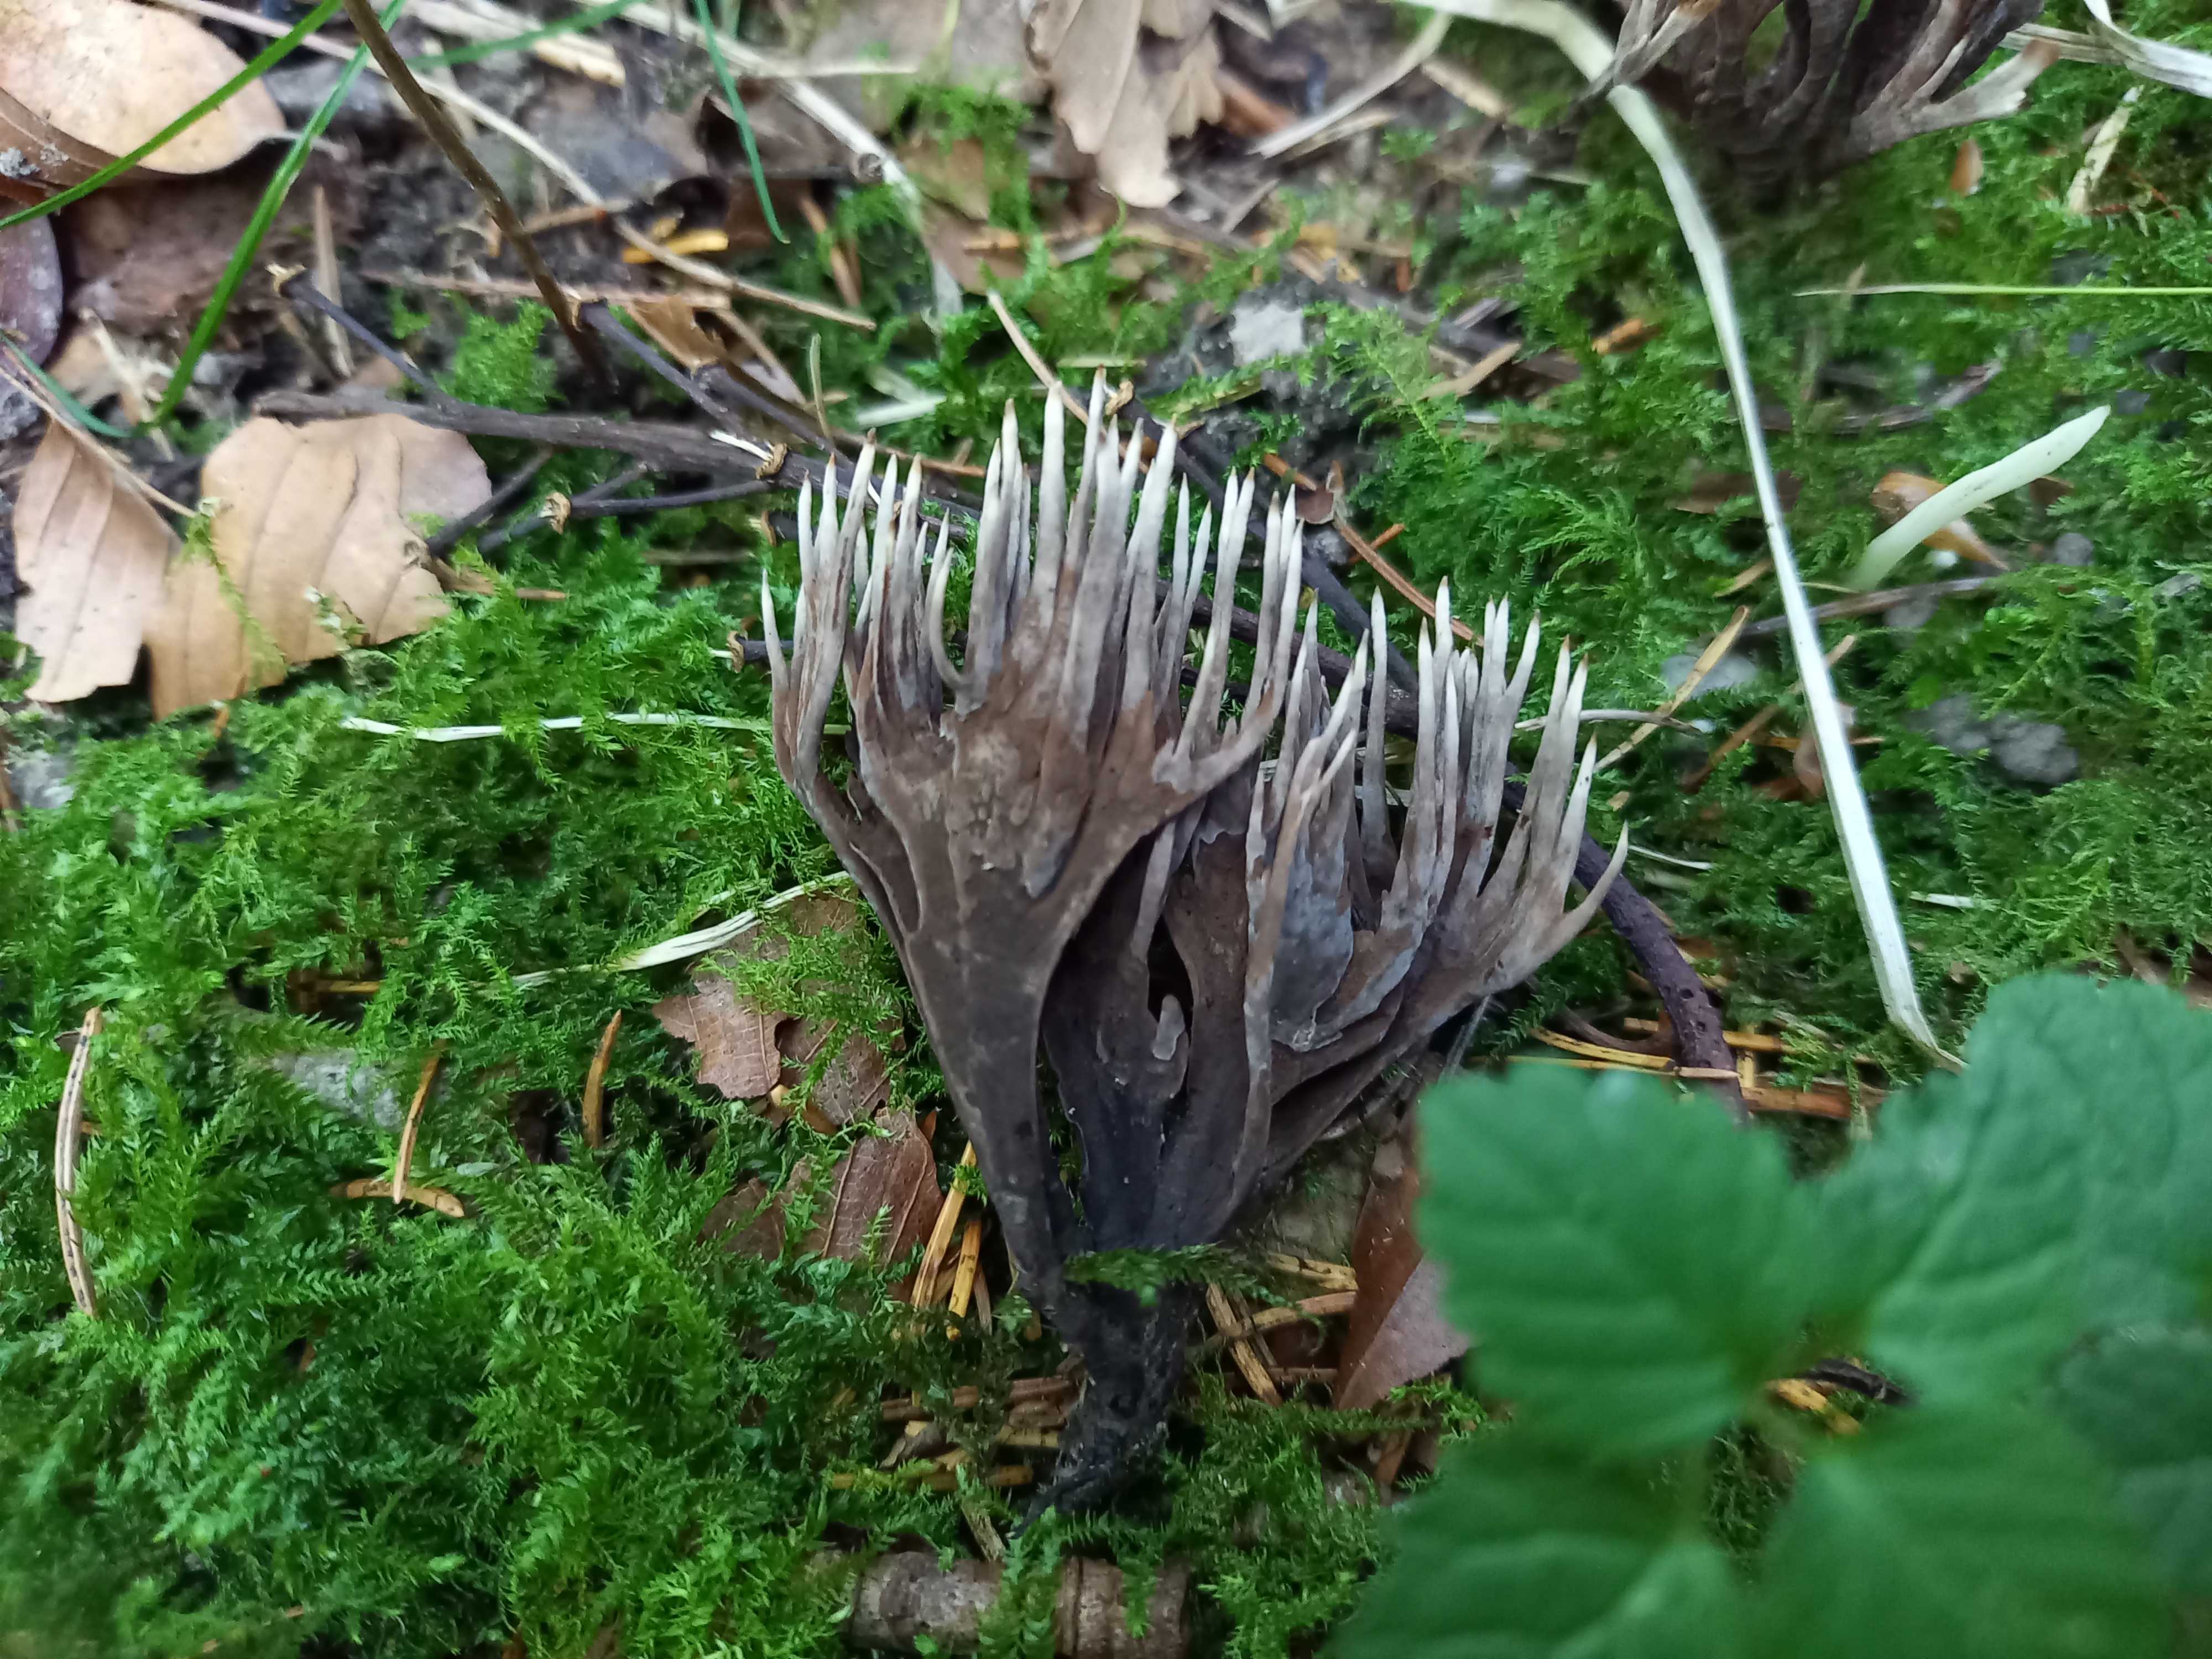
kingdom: Fungi
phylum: Basidiomycota
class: Agaricomycetes
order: Thelephorales
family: Thelephoraceae
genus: Thelephora
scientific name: Thelephora palmata
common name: grenet frynsesvamp
